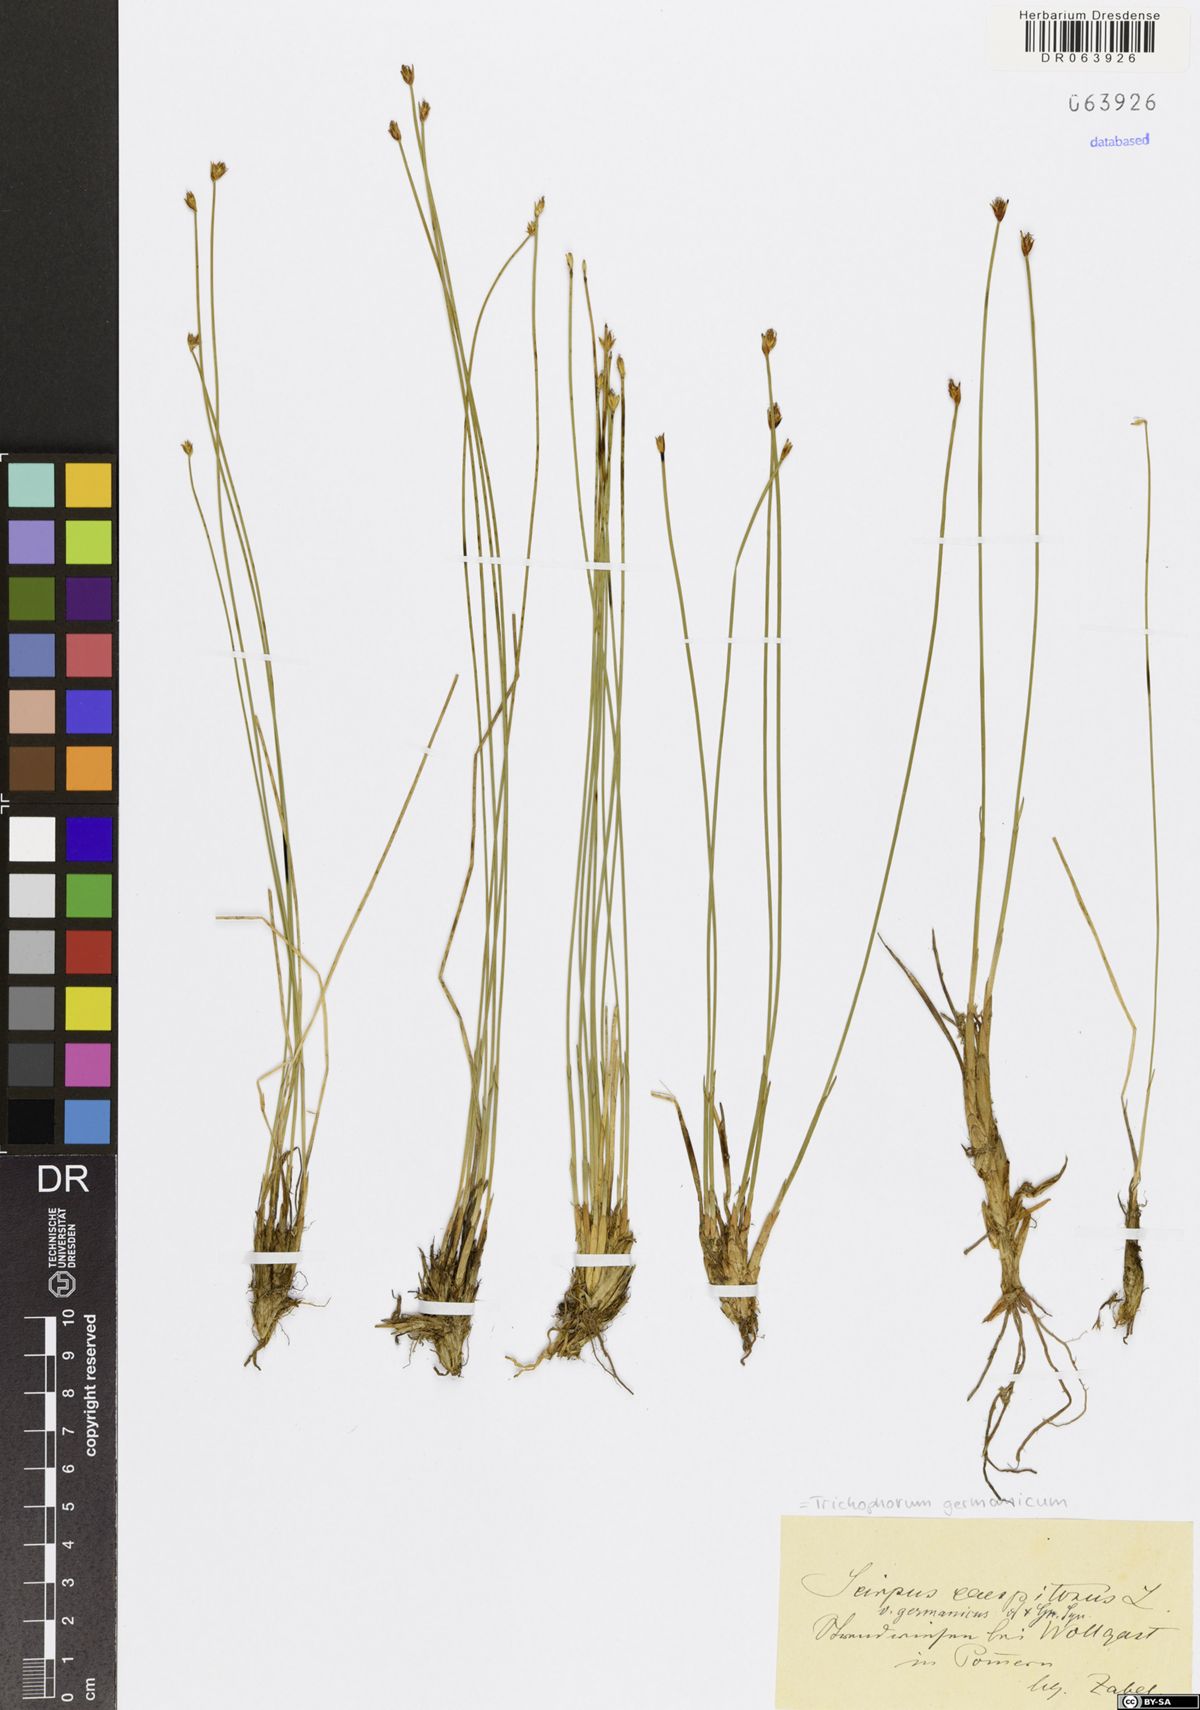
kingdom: Plantae
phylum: Tracheophyta
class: Liliopsida
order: Poales
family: Cyperaceae
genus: Trichophorum
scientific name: Trichophorum cespitosum
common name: Cespitose bulrush
